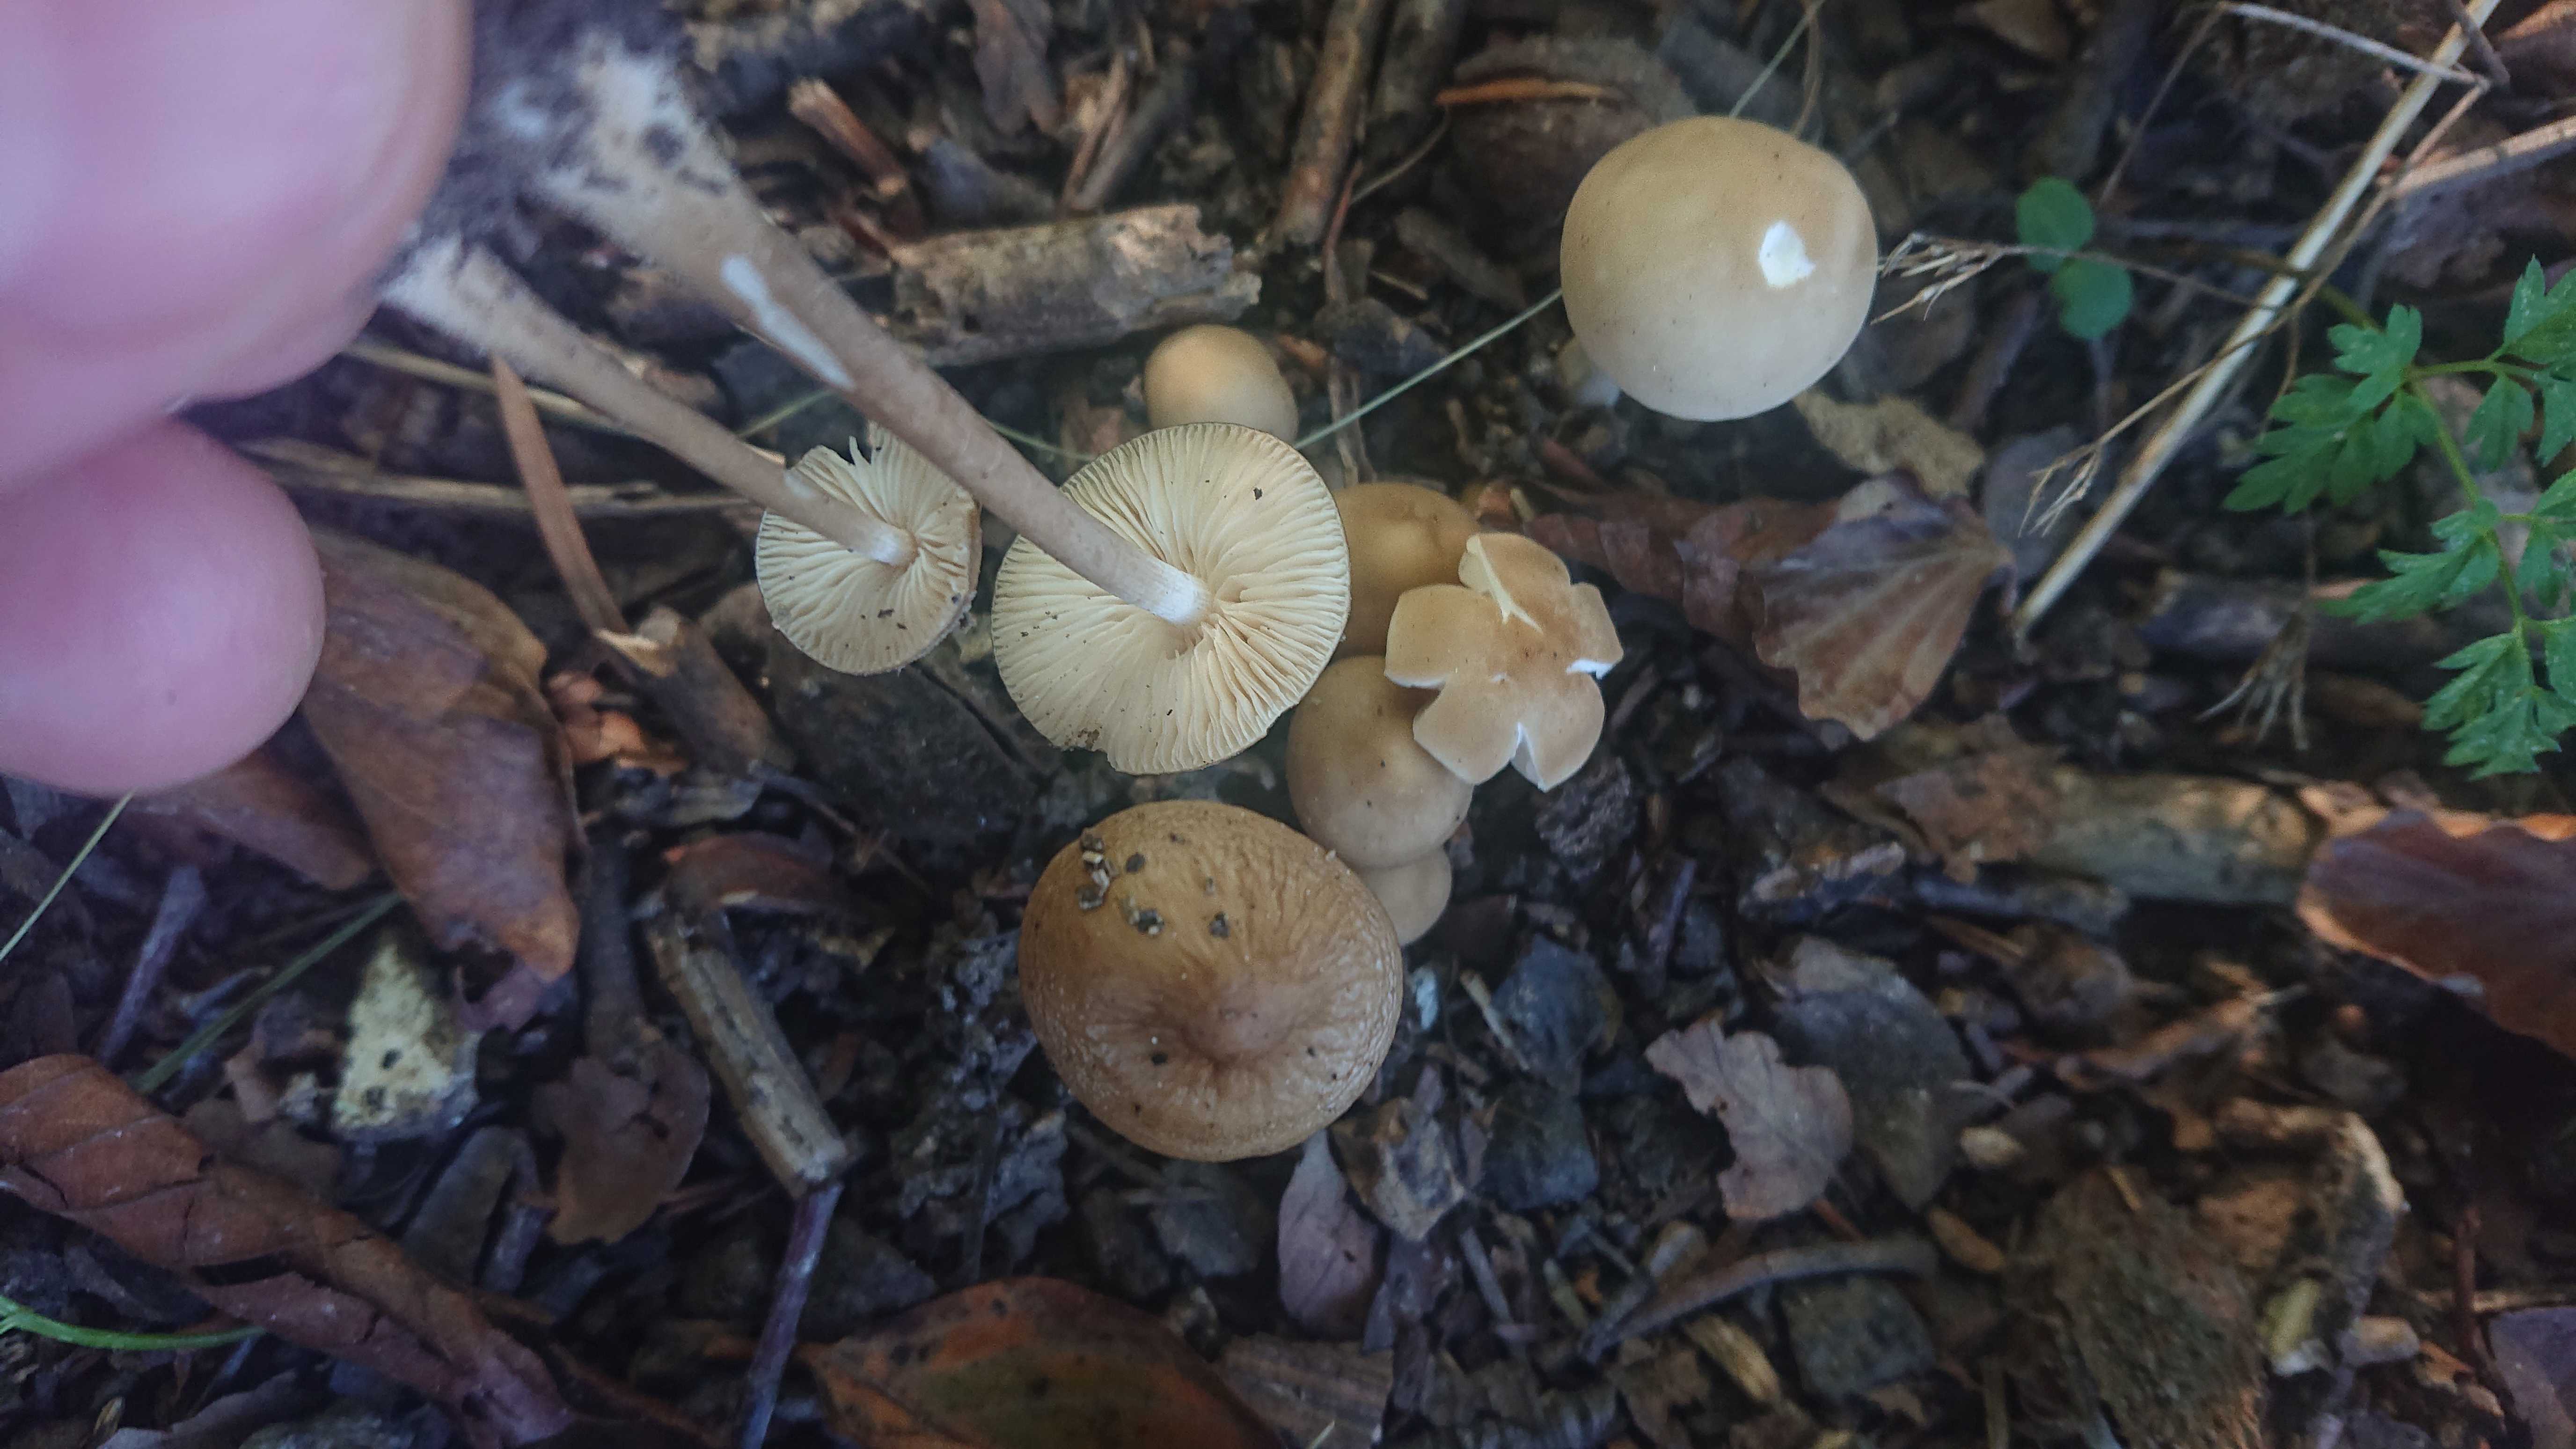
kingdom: Fungi
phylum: Basidiomycota
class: Agaricomycetes
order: Agaricales
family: Physalacriaceae
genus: Hymenopellis
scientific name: Hymenopellis radicata
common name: almindelig pælerodshat
